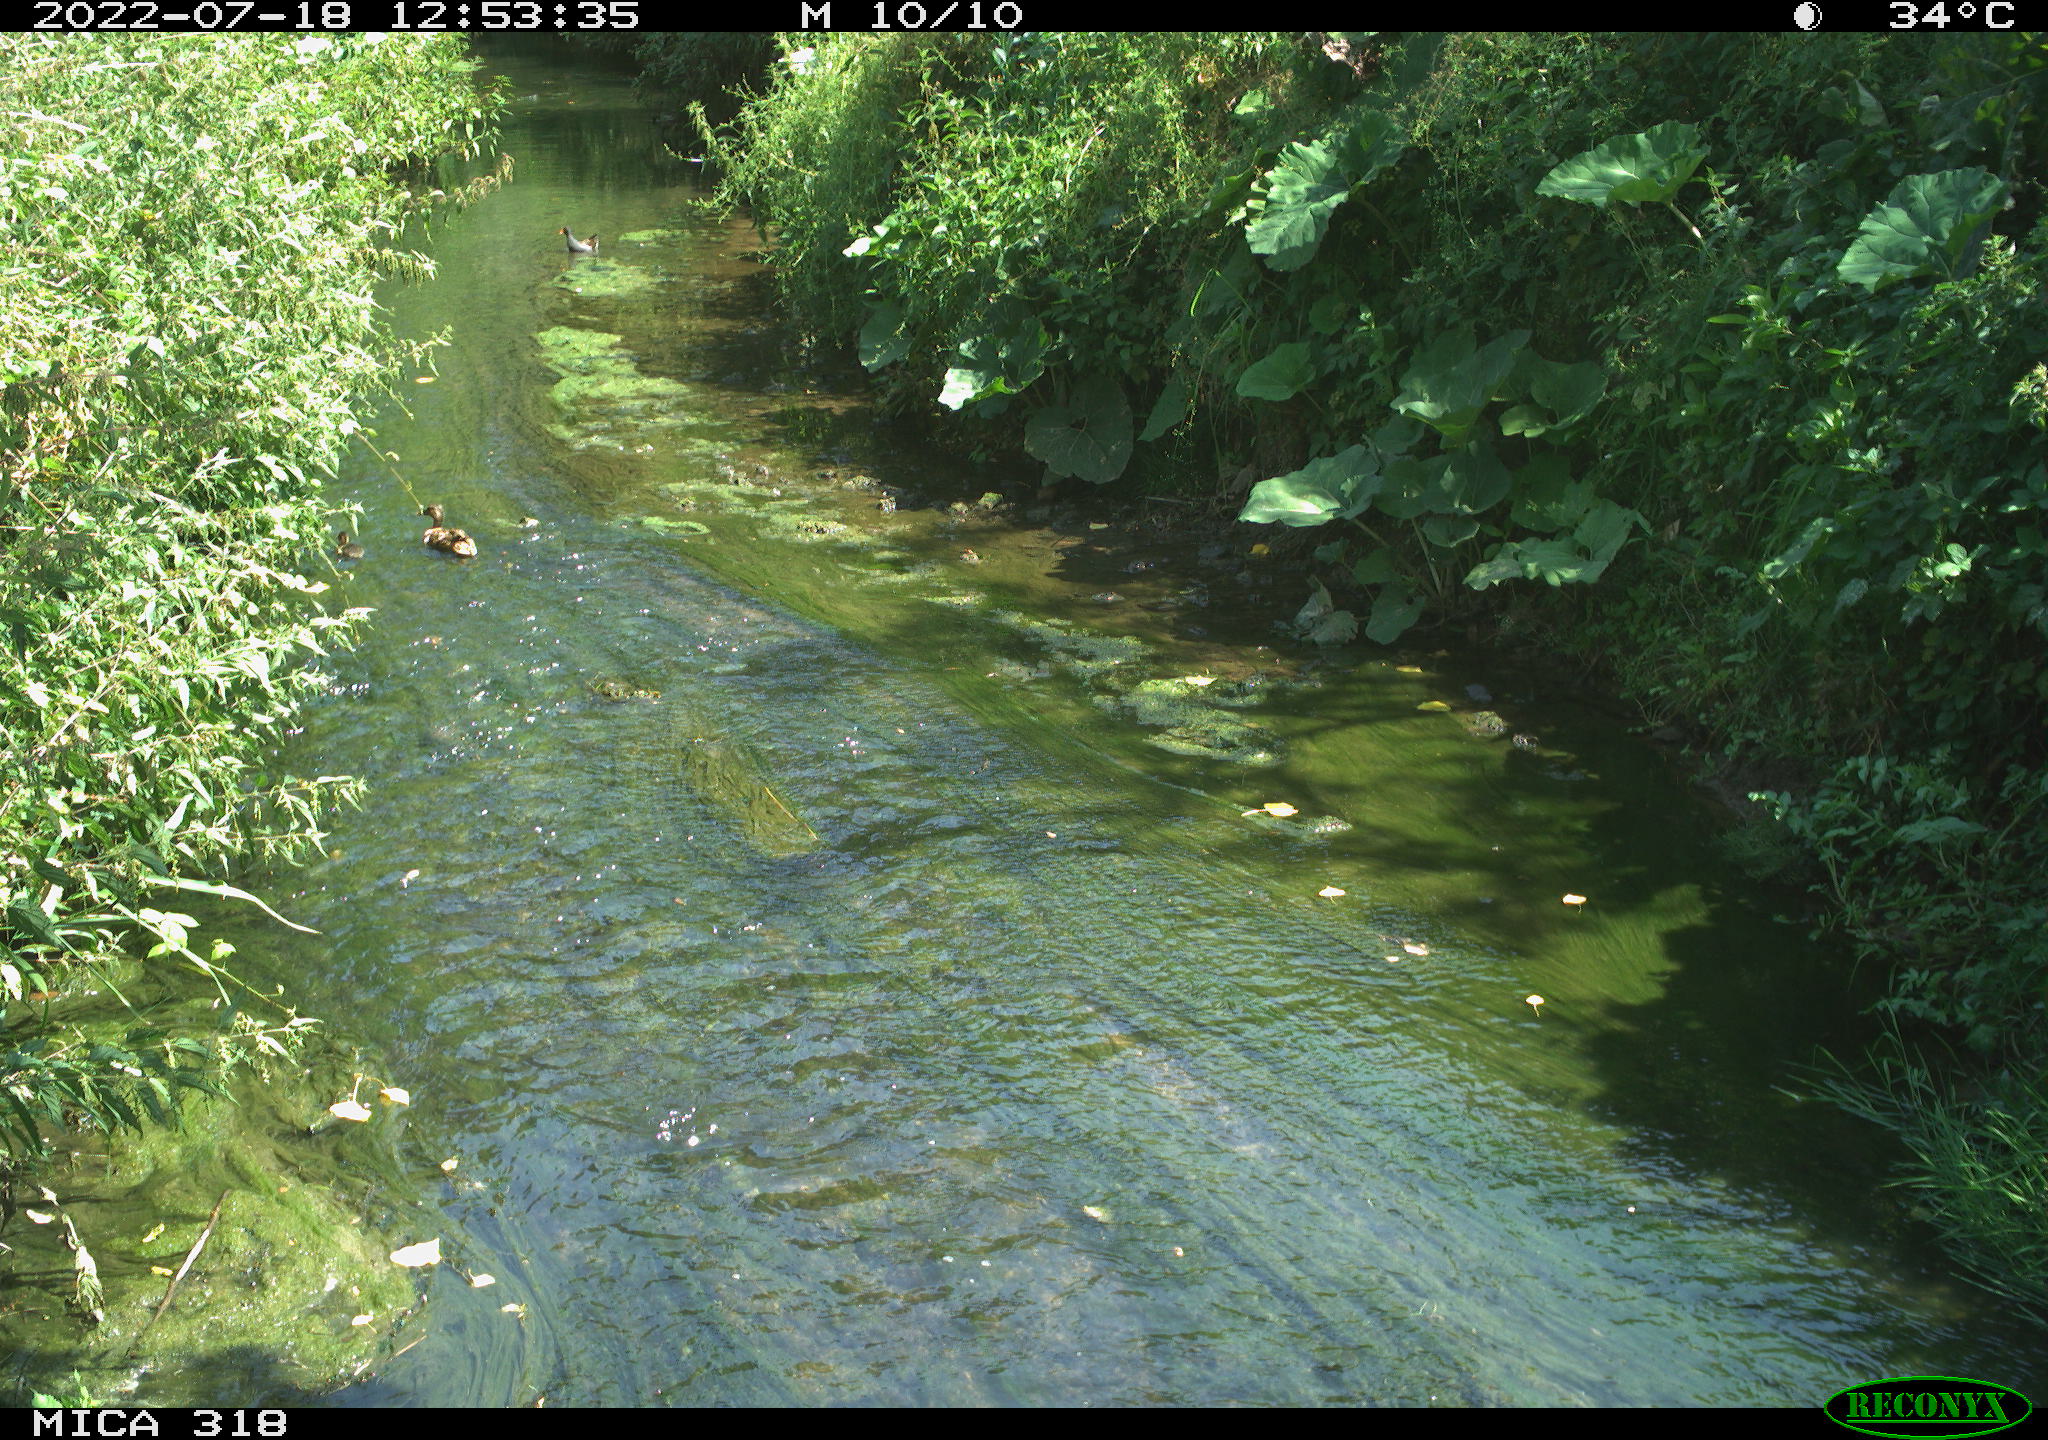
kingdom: Animalia
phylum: Chordata
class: Aves
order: Anseriformes
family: Anatidae
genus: Anas
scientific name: Anas platyrhynchos
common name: Mallard
